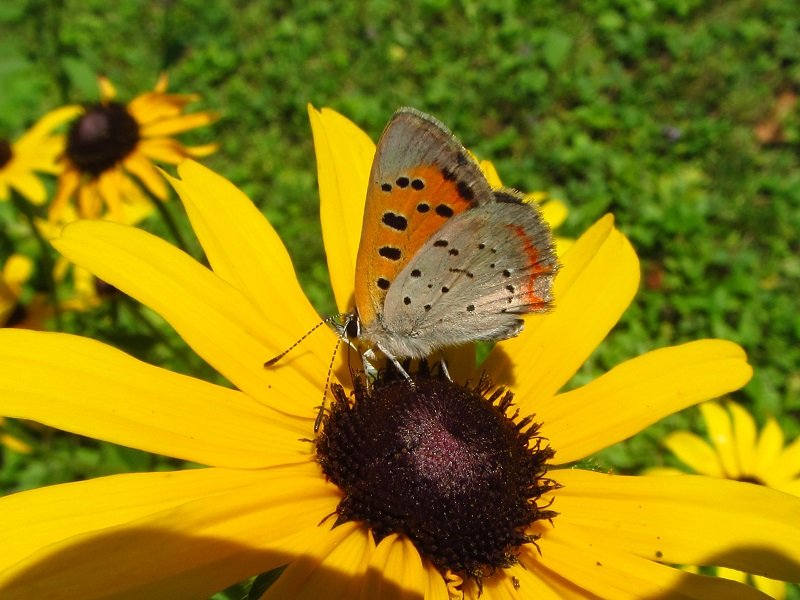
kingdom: Animalia
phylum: Arthropoda
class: Insecta
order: Lepidoptera
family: Lycaenidae
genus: Lycaena
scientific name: Lycaena phlaeas
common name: American Copper
